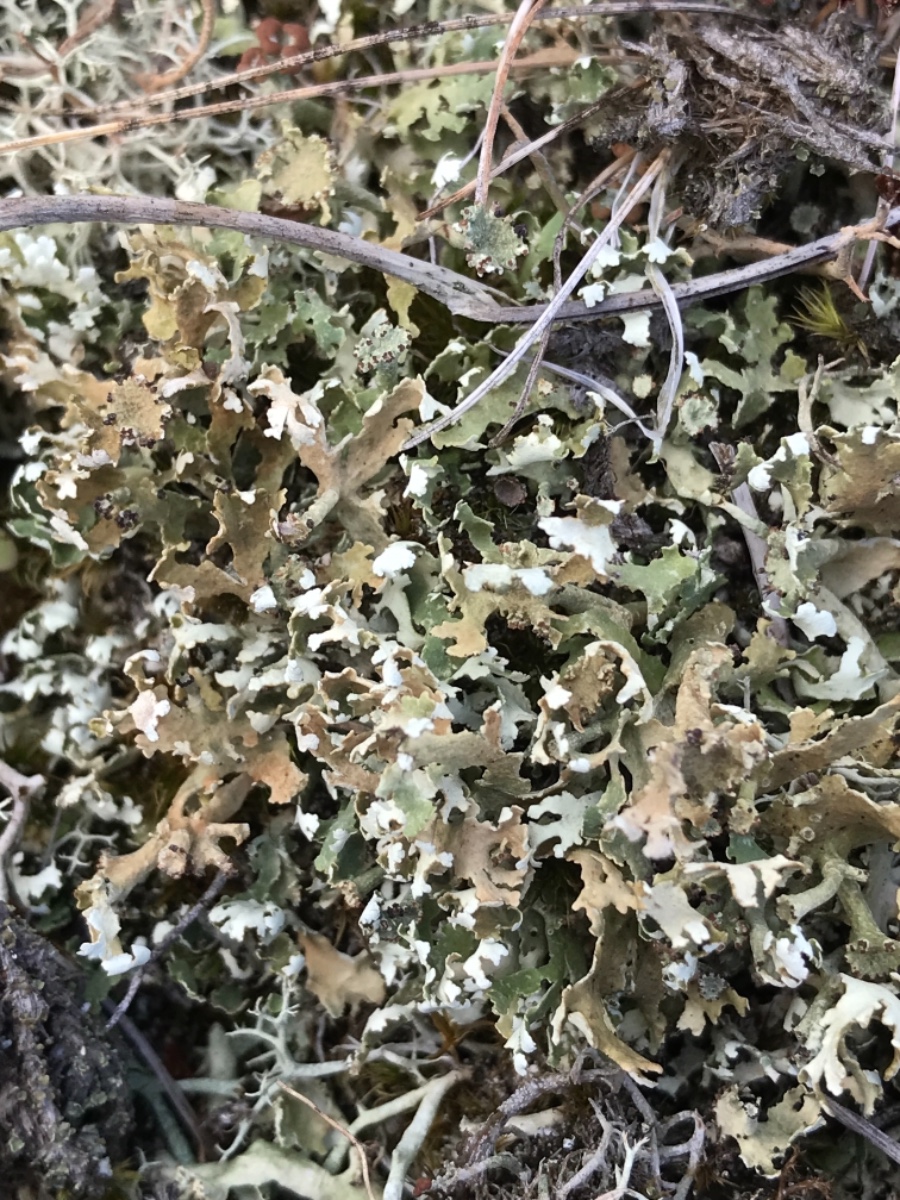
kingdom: Fungi
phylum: Ascomycota
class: Lecanoromycetes
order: Lecanorales
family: Cladoniaceae
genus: Cladonia
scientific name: Cladonia foliacea
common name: fliget bægerlav
